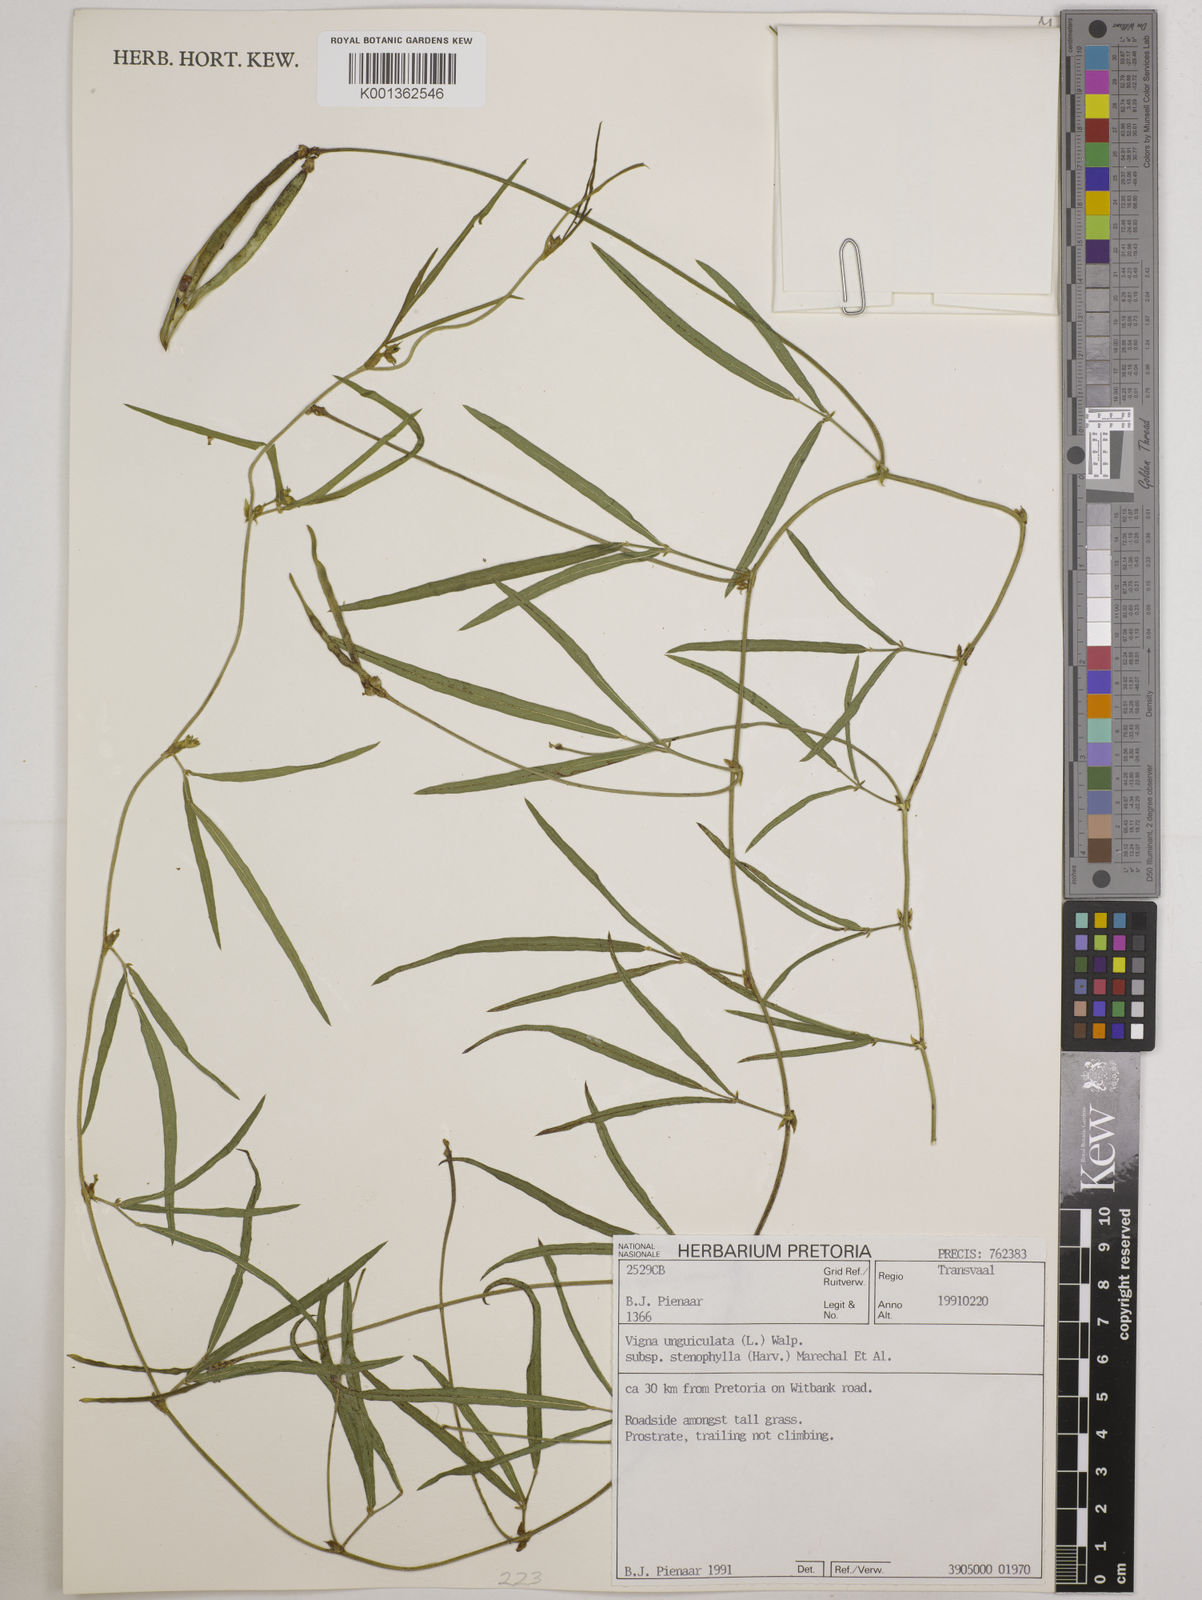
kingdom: Plantae
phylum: Tracheophyta
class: Magnoliopsida
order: Fabales
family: Fabaceae
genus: Vigna
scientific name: Vigna
